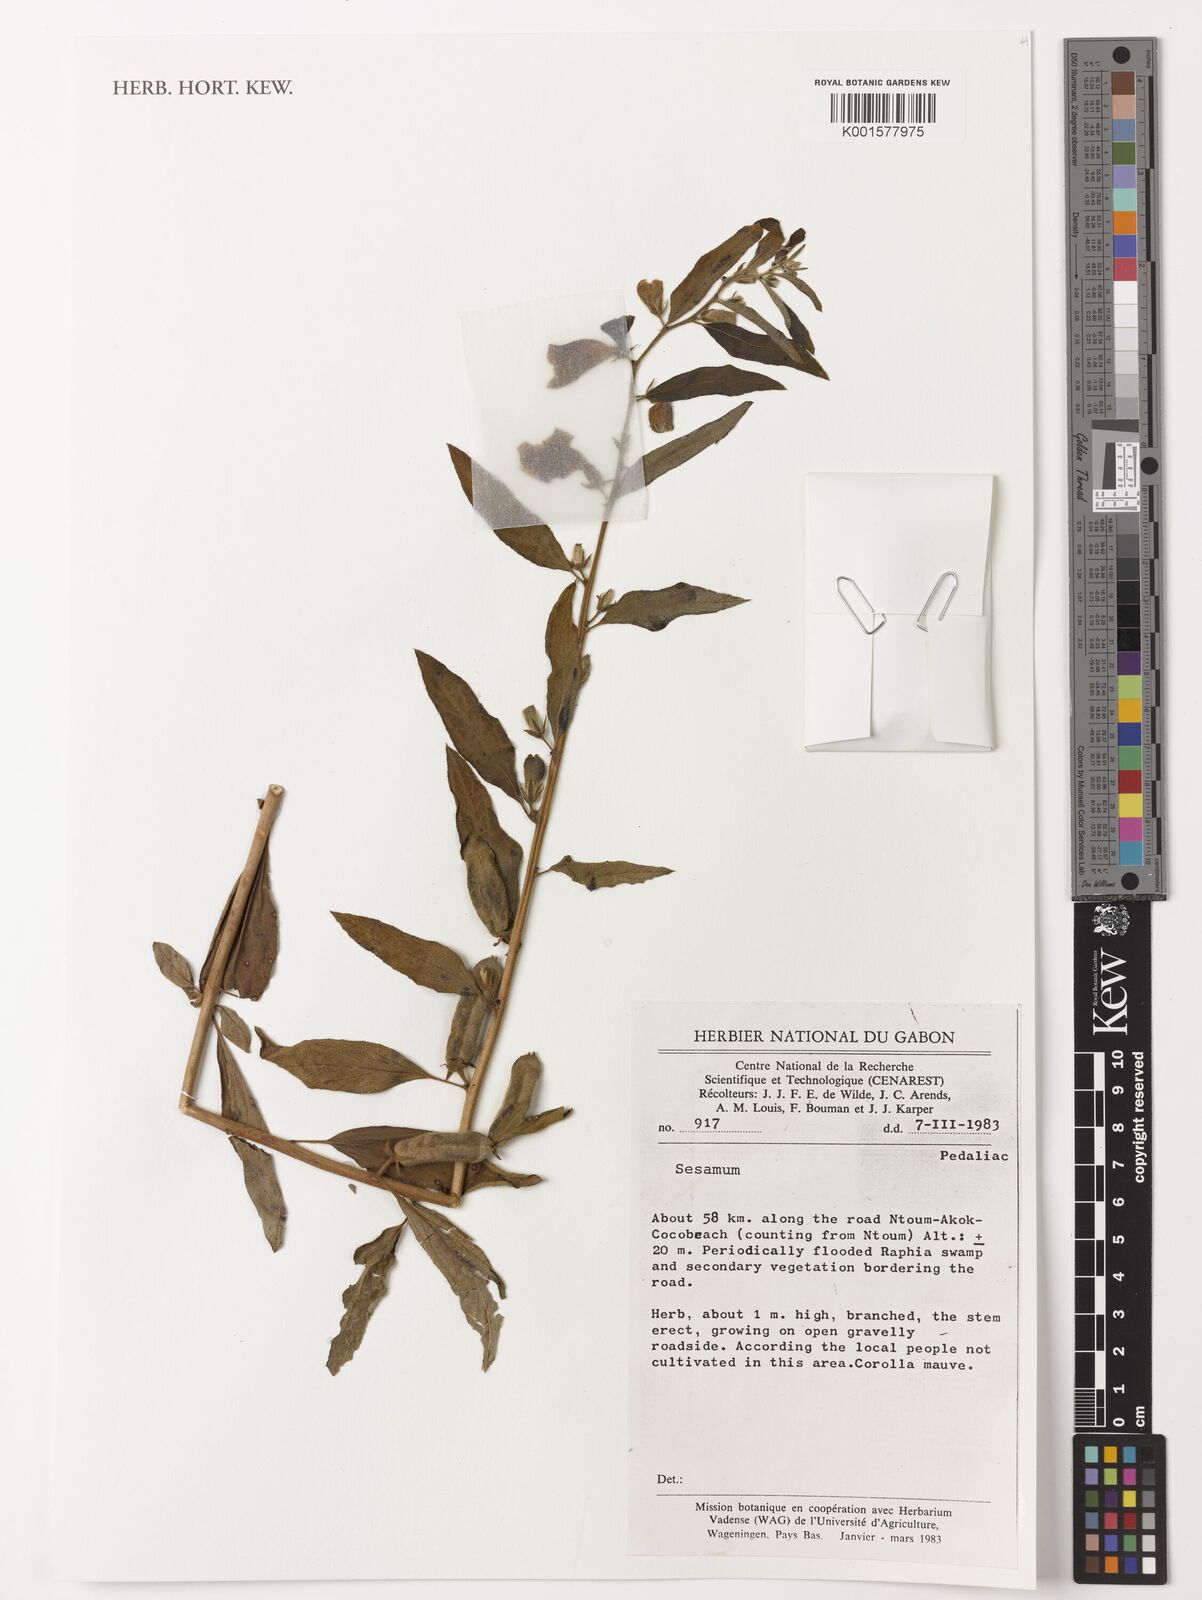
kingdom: Plantae
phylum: Tracheophyta
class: Magnoliopsida
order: Lamiales
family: Pedaliaceae
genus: Sesamum
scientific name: Sesamum
